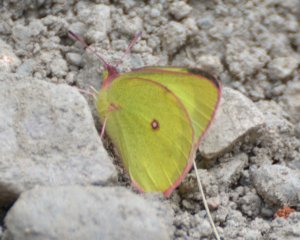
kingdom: Animalia
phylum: Arthropoda
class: Insecta
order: Lepidoptera
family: Pieridae
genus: Colias
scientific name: Colias interior
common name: Pink-edged Sulphur
